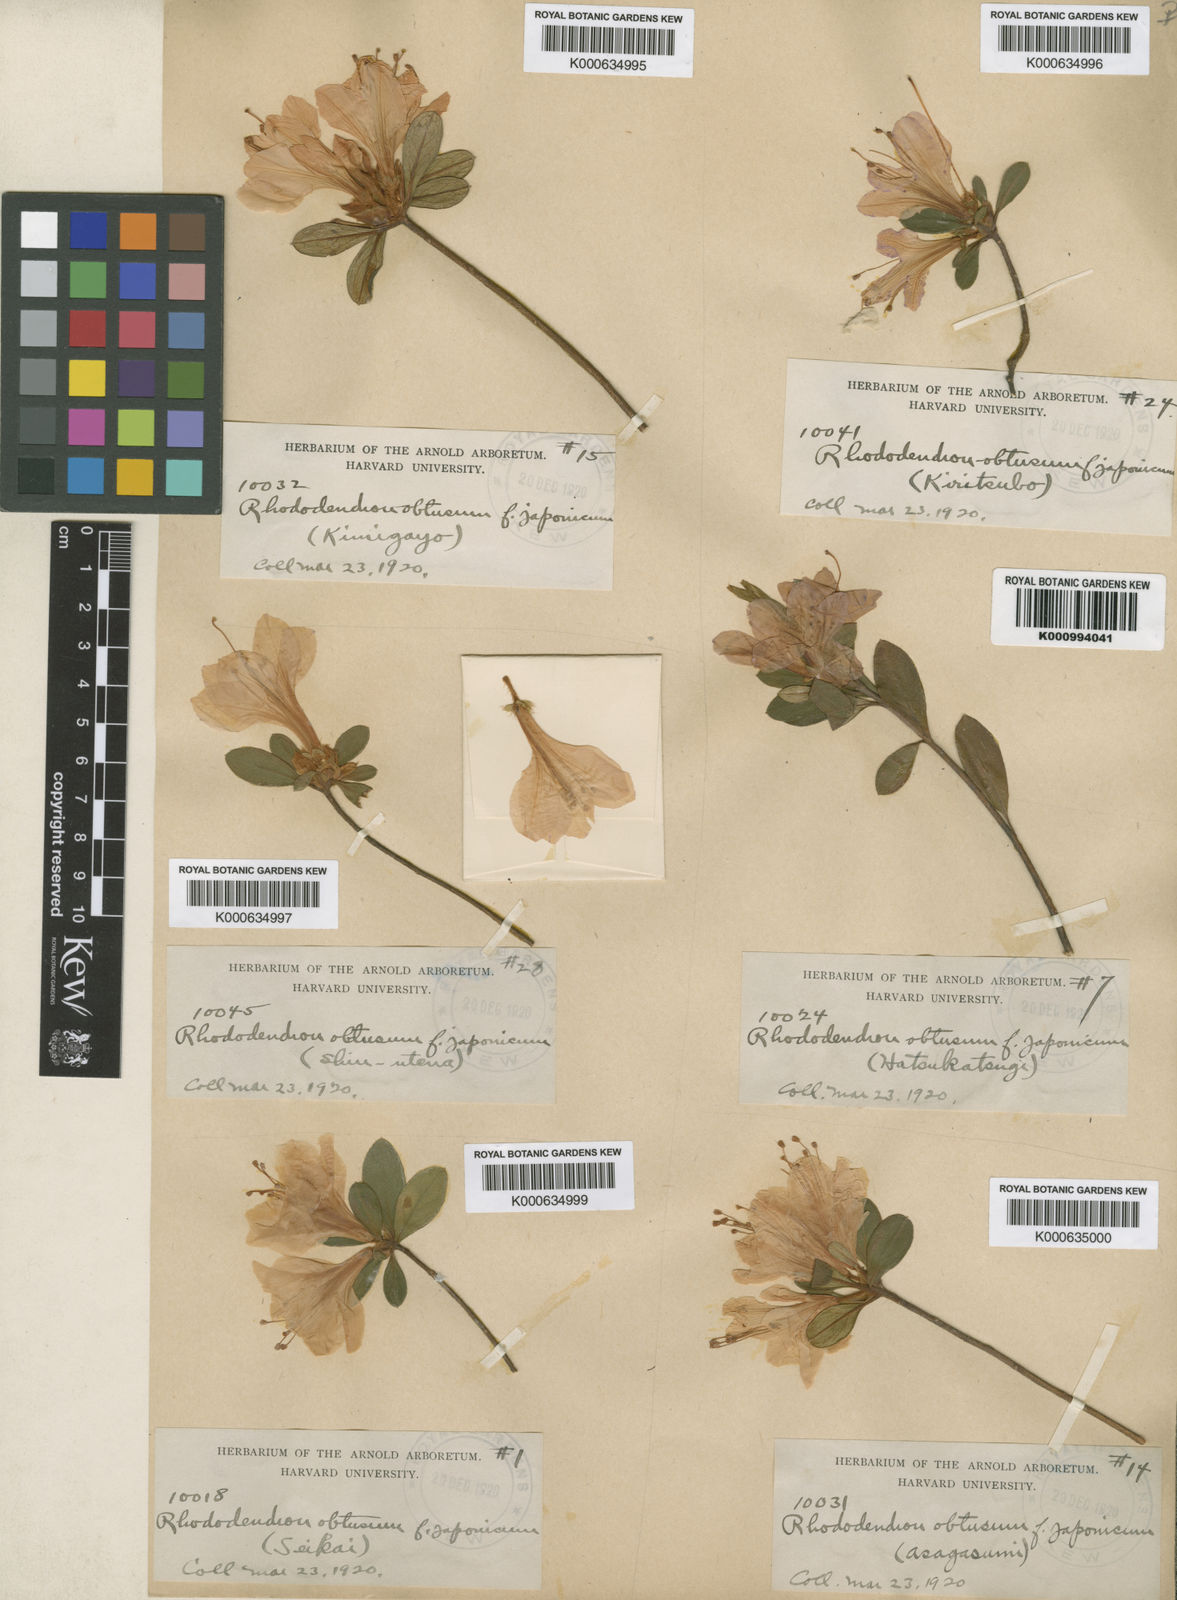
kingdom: Plantae
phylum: Tracheophyta
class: Magnoliopsida
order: Ericales
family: Ericaceae
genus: Rhododendron
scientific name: Rhododendron kiusianum
